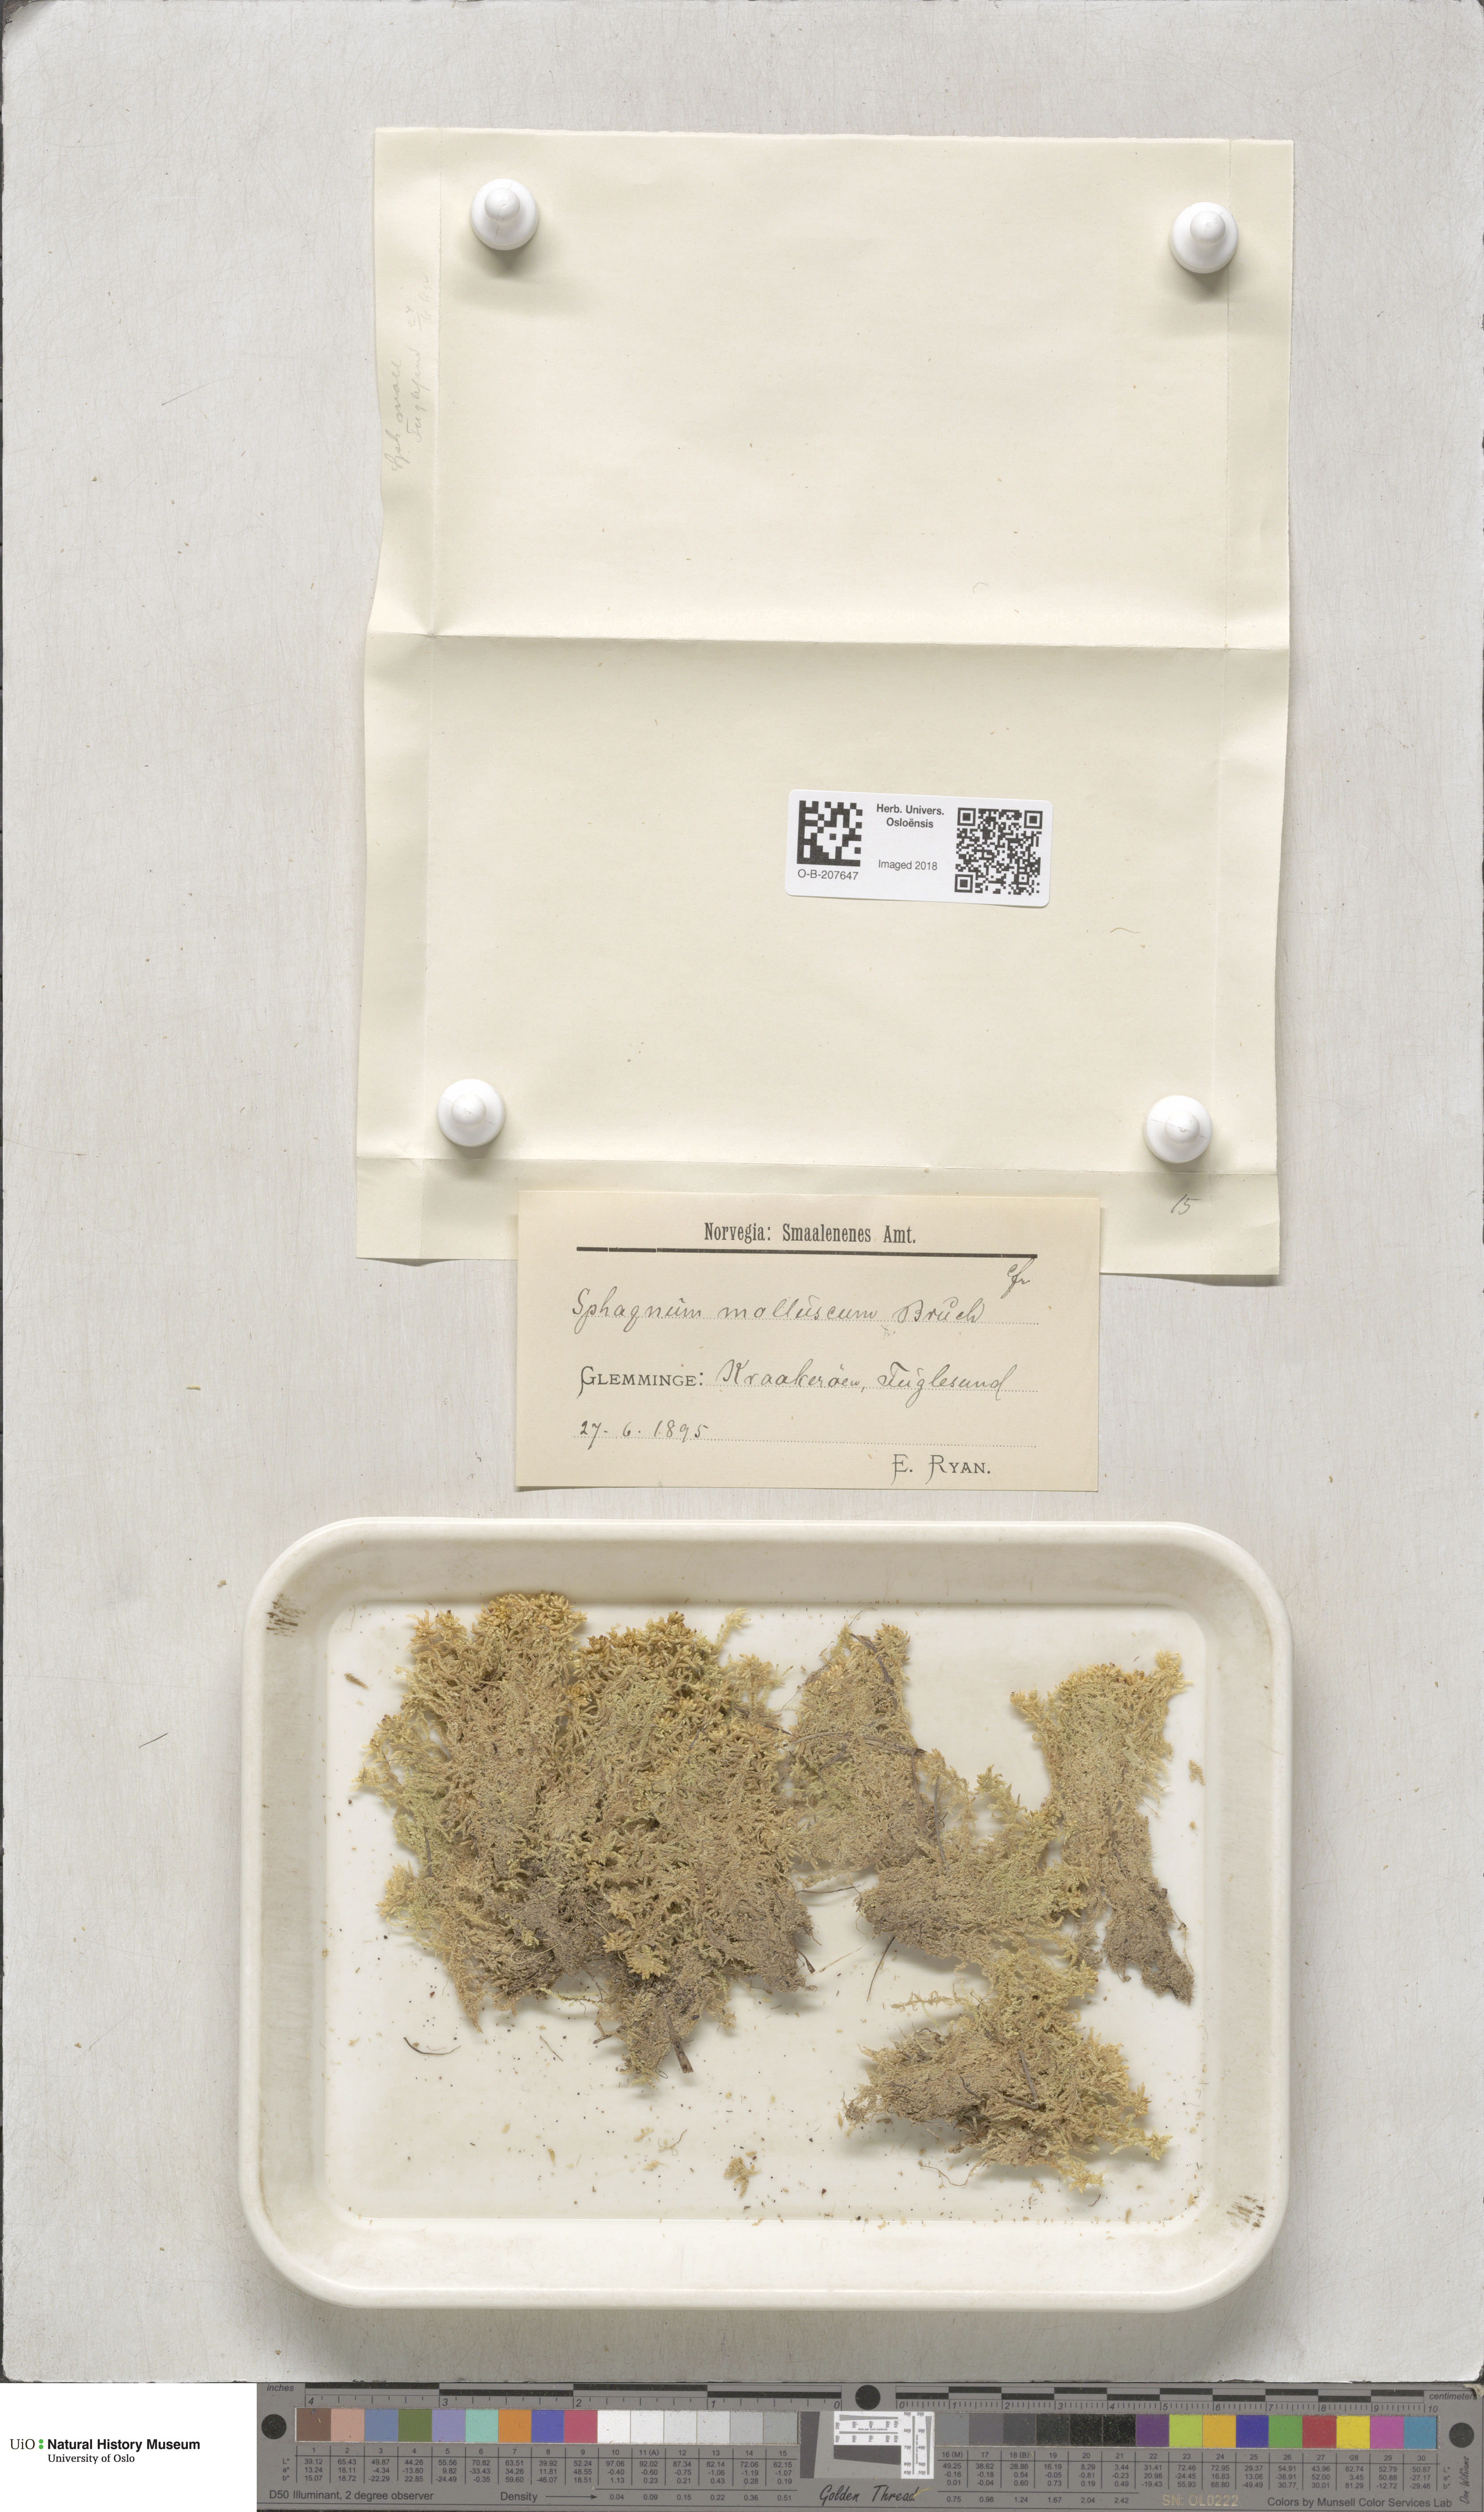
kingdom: Plantae
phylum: Bryophyta
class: Sphagnopsida
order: Sphagnales
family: Sphagnaceae
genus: Sphagnum
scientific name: Sphagnum tenellum
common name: Soft bog-moss
